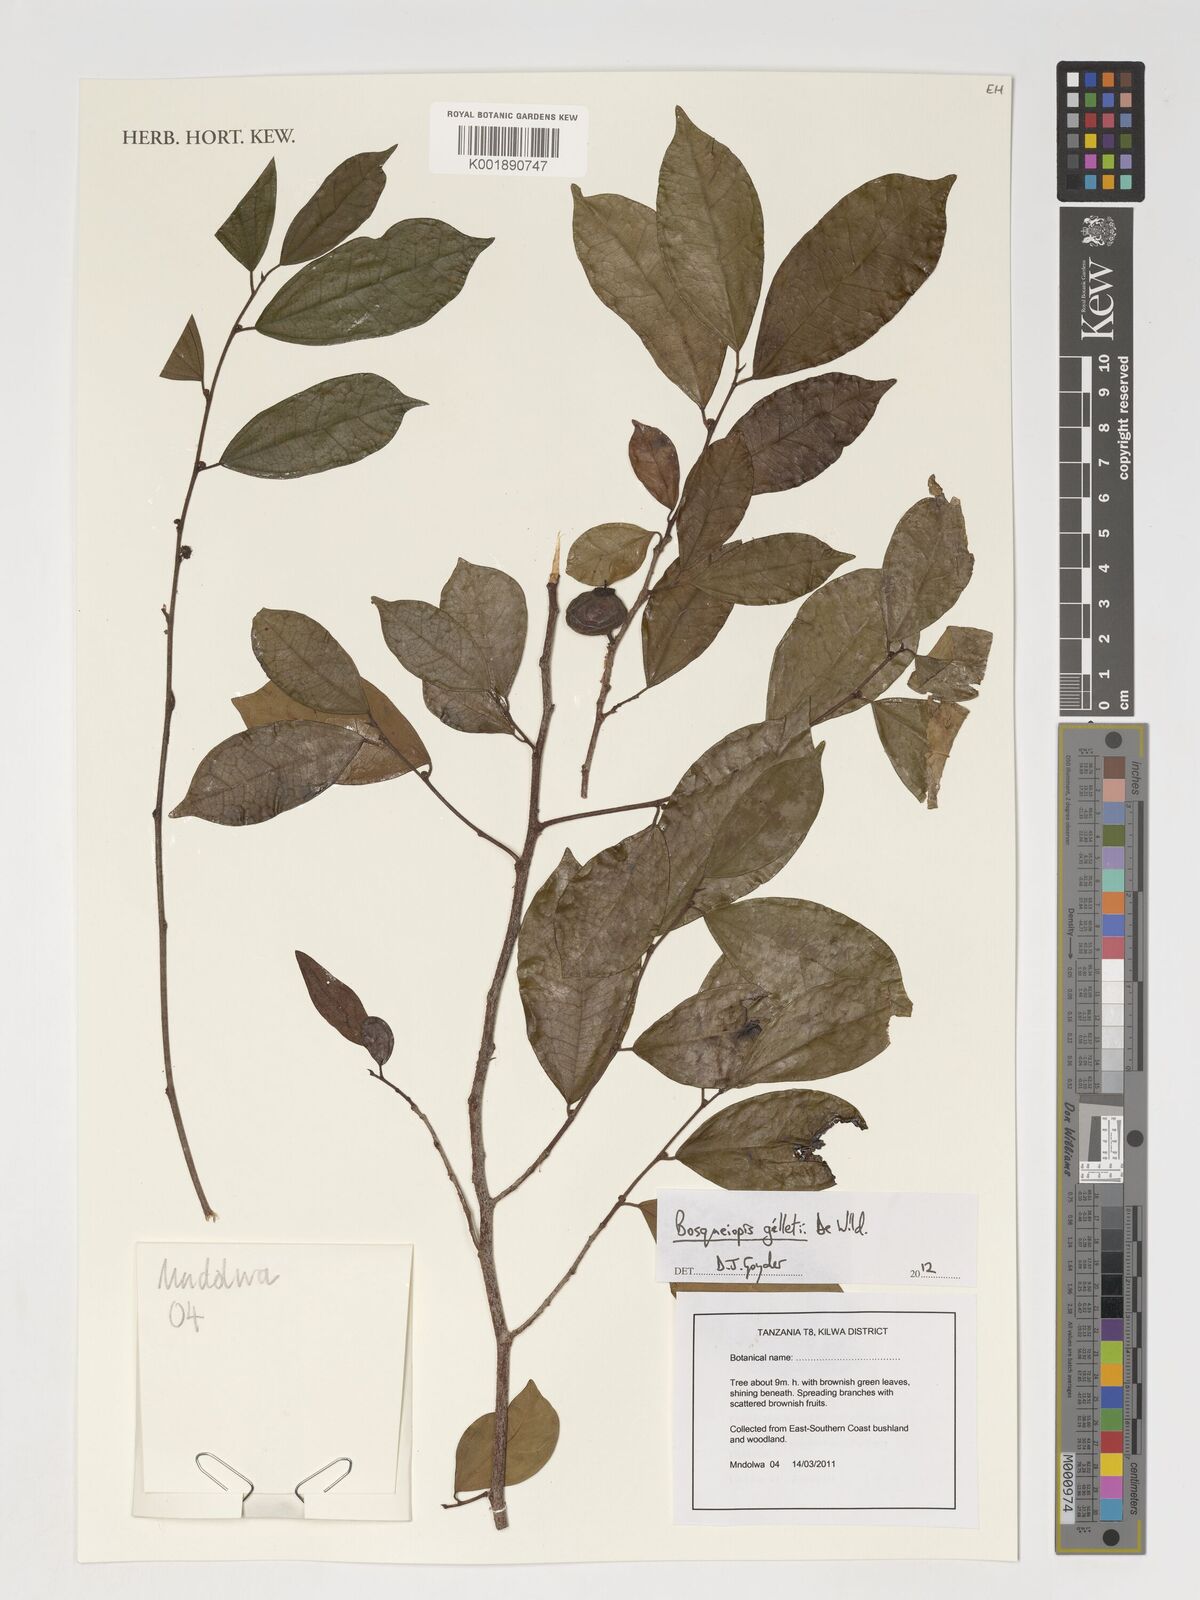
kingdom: Plantae
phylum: Tracheophyta
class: Magnoliopsida
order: Rosales
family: Moraceae
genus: Bosqueiopsis
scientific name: Bosqueiopsis gilletii
